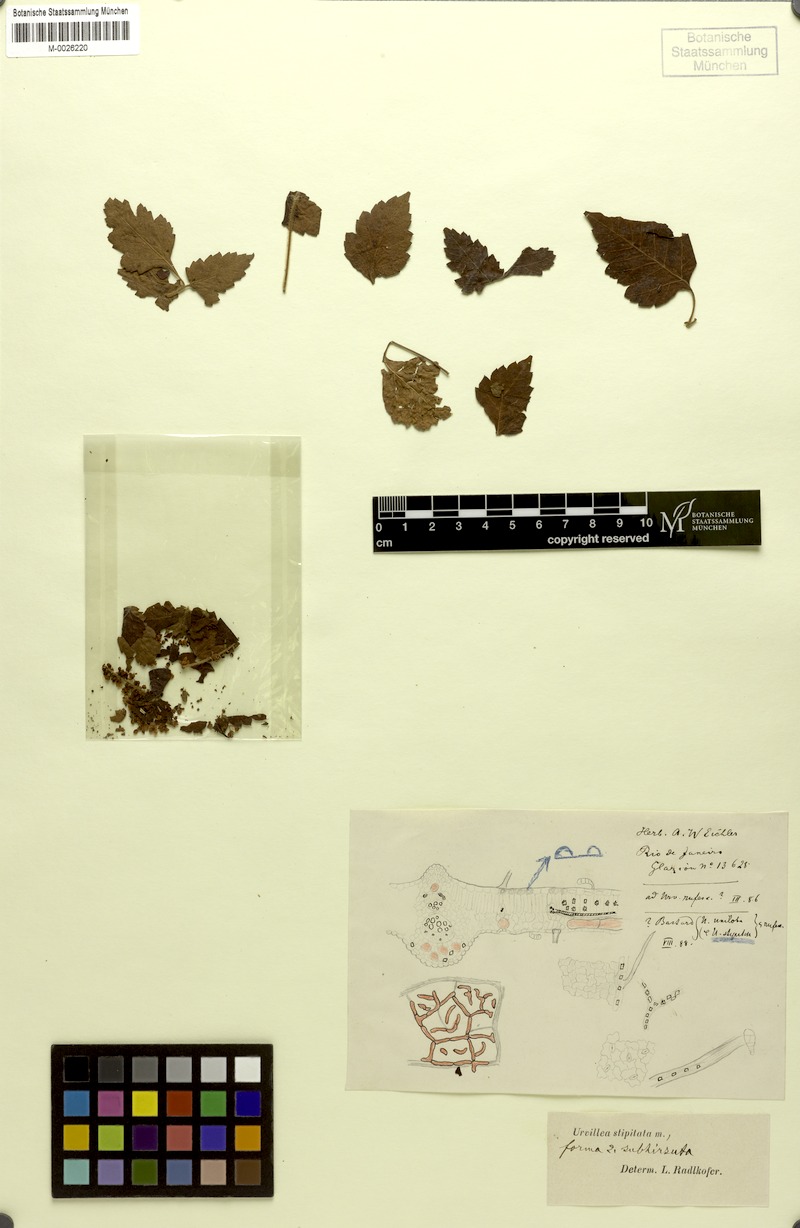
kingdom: Plantae
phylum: Tracheophyta
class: Magnoliopsida
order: Sapindales
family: Sapindaceae
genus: Urvillea
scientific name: Urvillea stipitata
